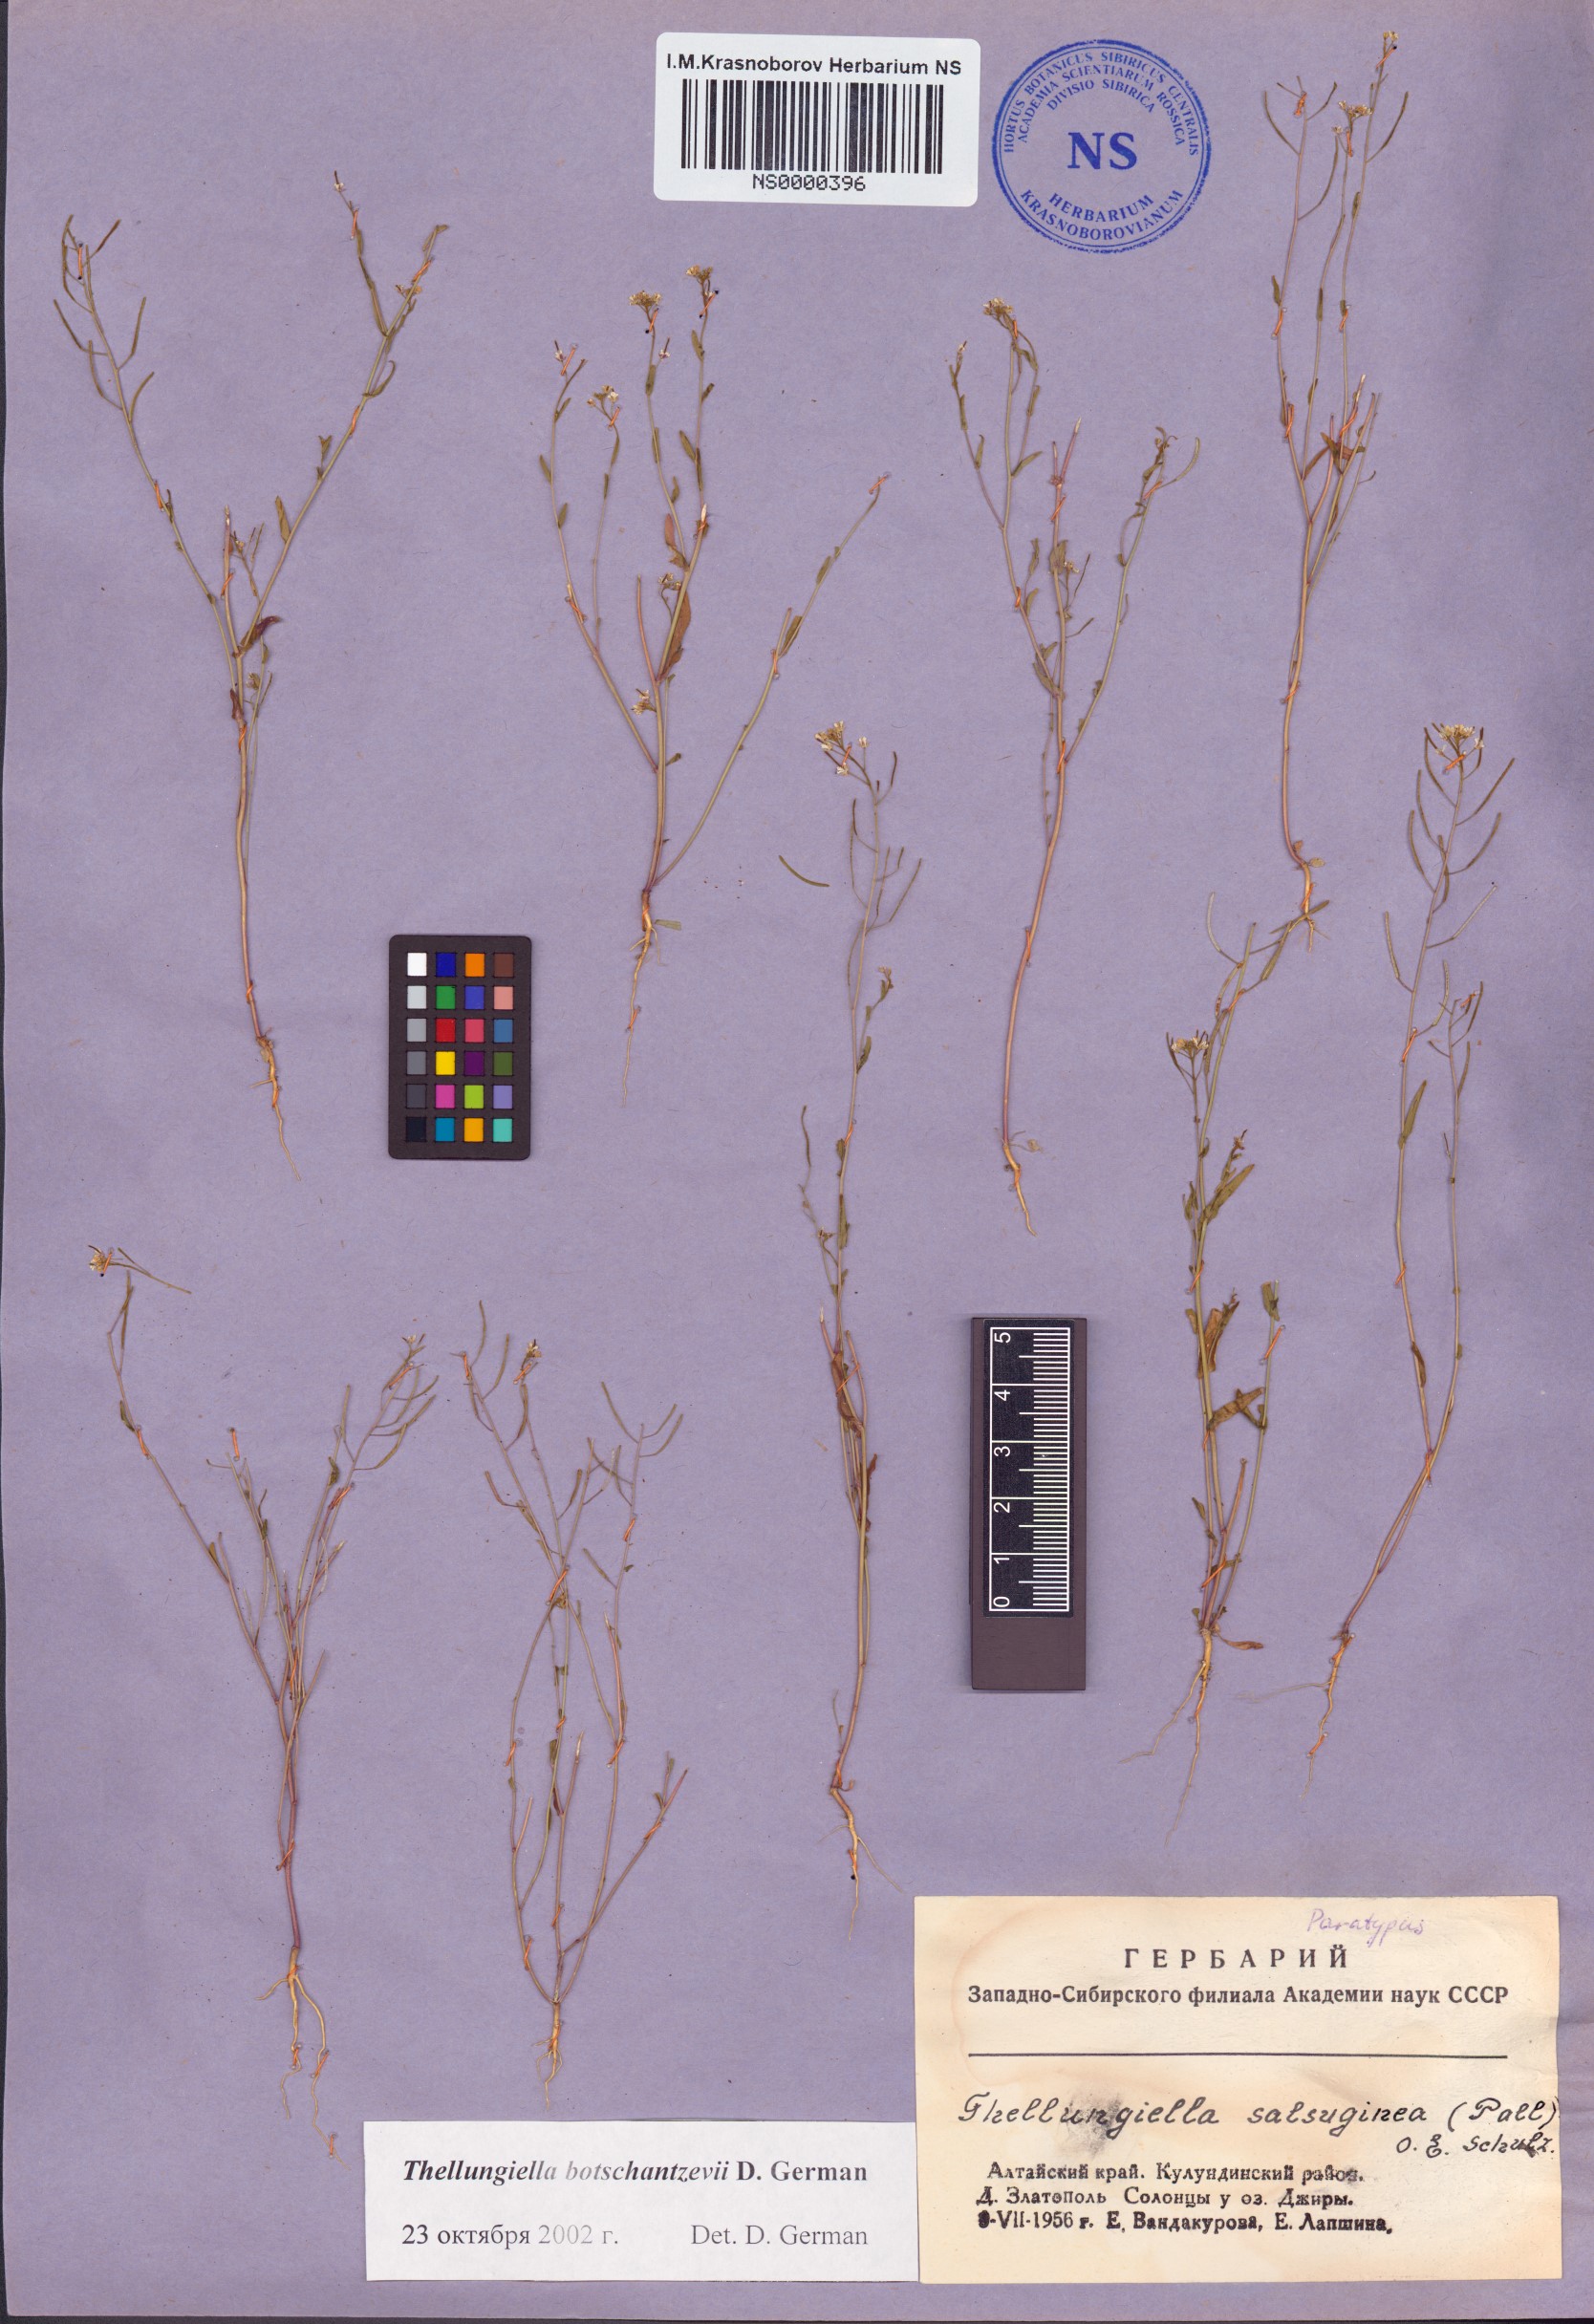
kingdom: Plantae
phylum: Tracheophyta
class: Magnoliopsida
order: Brassicales
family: Brassicaceae
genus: Eutrema
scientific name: Eutrema botschantzevii
